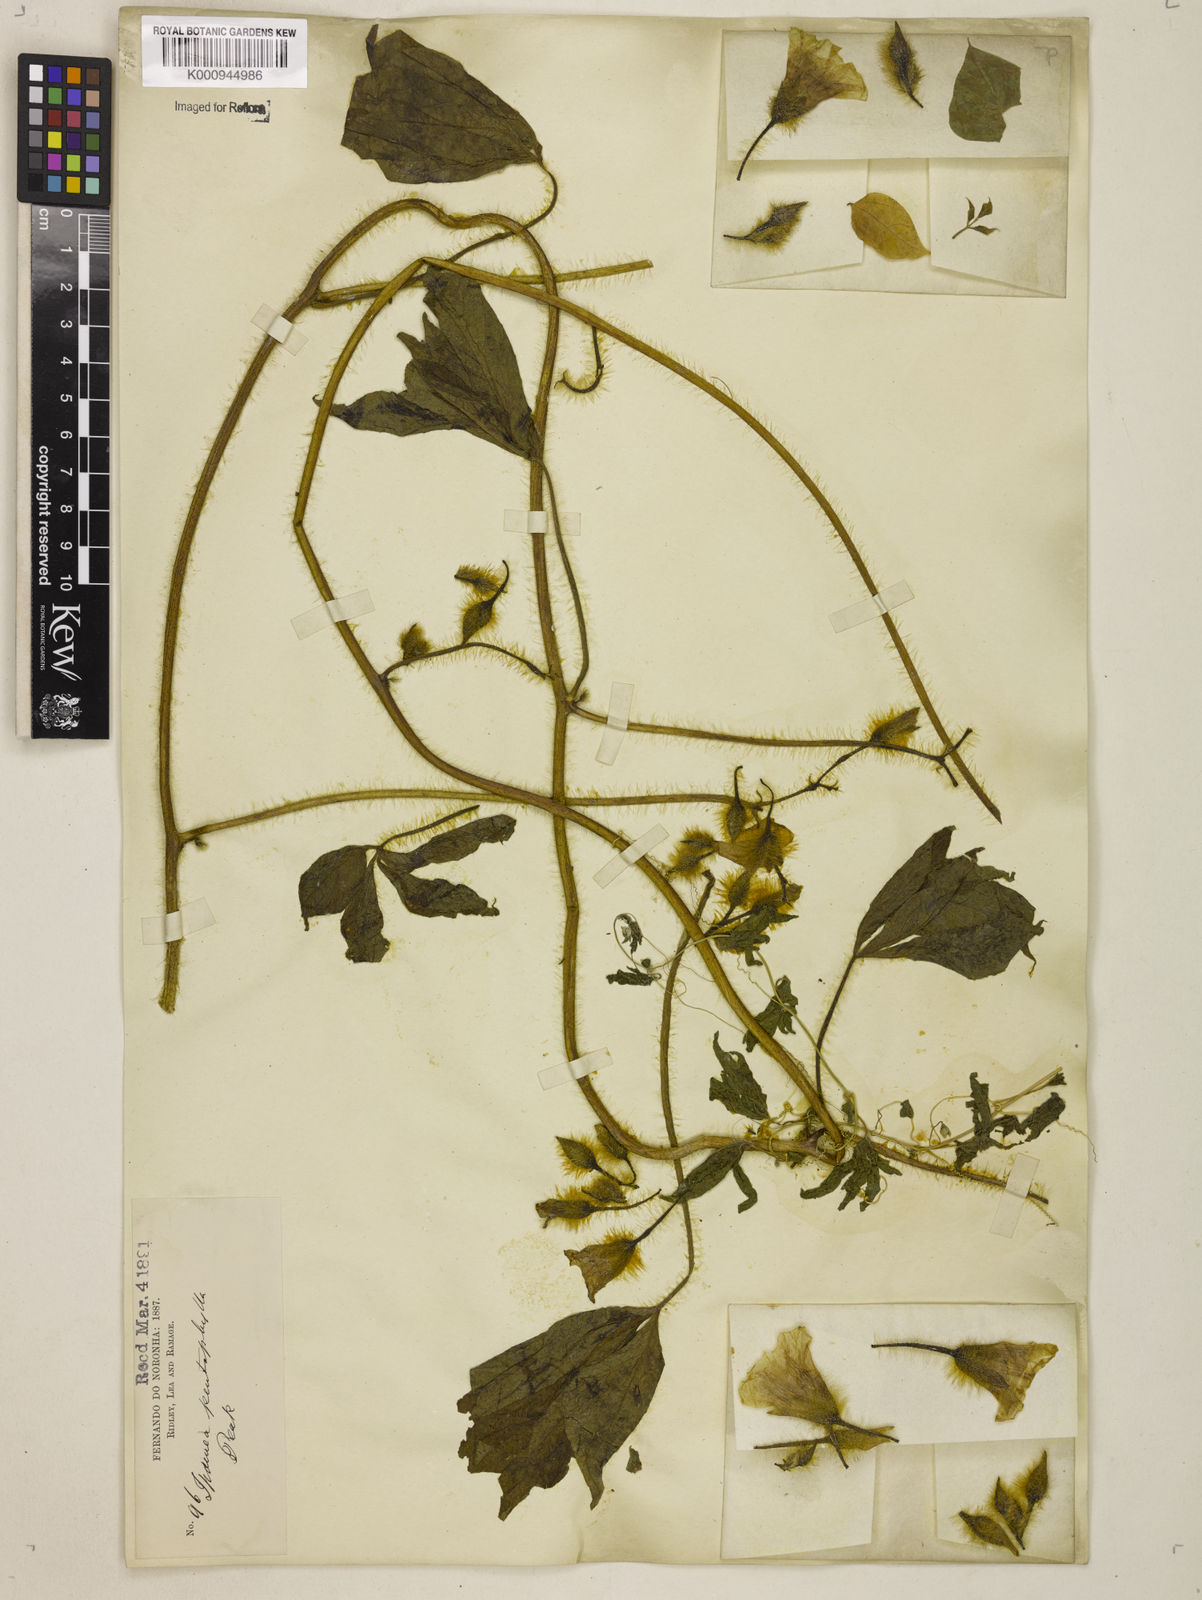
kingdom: Plantae
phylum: Tracheophyta
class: Magnoliopsida
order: Solanales
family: Convolvulaceae
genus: Distimake
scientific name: Distimake aegyptius
